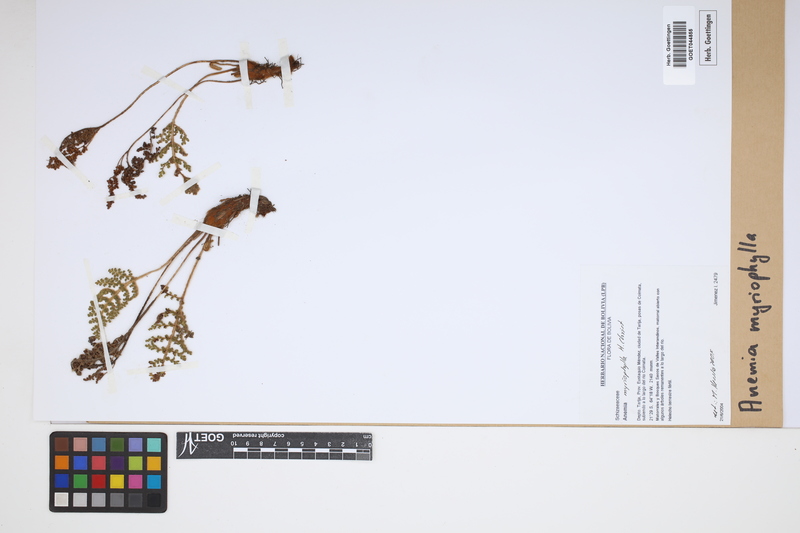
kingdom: Plantae
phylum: Tracheophyta
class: Polypodiopsida
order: Schizaeales
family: Anemiaceae
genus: Anemia
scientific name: Anemia myriophylla
